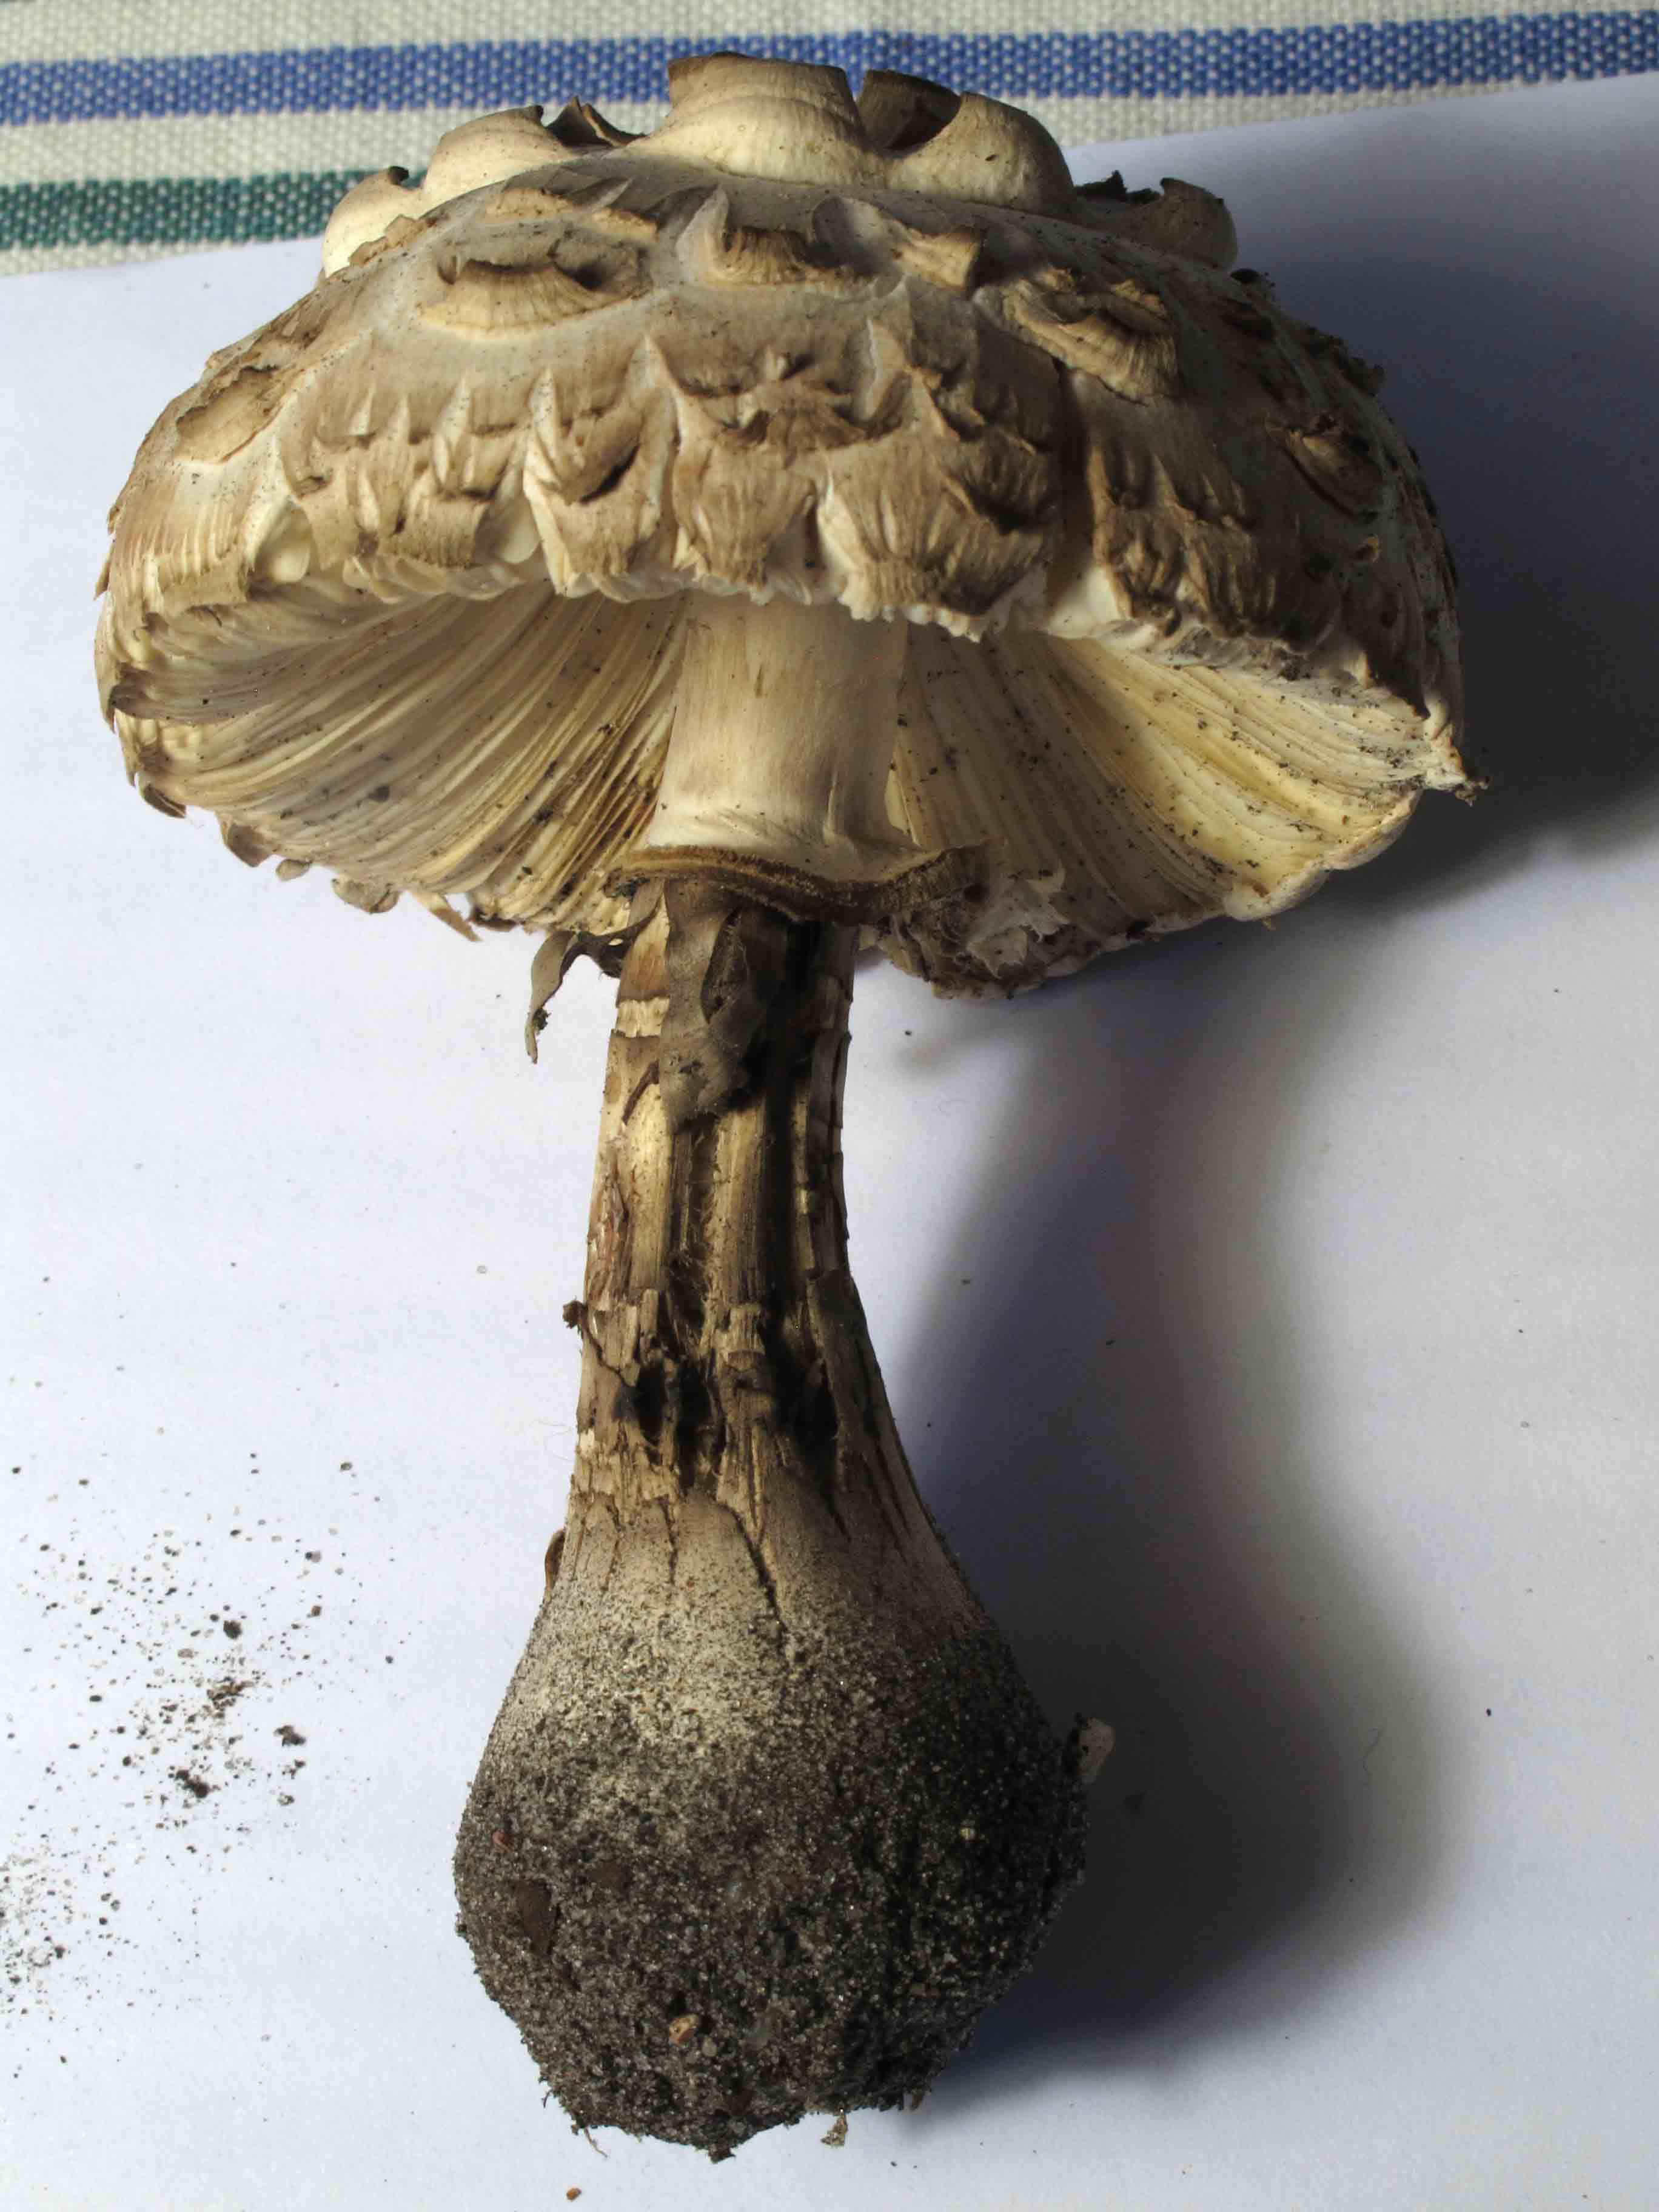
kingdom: Fungi
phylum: Basidiomycota
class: Agaricomycetes
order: Agaricales
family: Agaricaceae
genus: Chlorophyllum
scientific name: Chlorophyllum brunneum
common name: giftig rabarberhat
